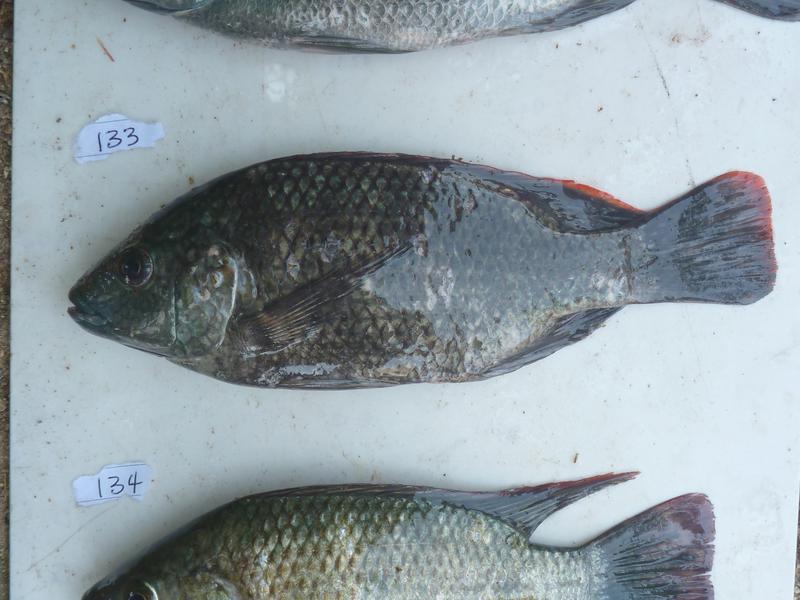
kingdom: Animalia
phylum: Chordata
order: Perciformes
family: Cichlidae
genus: Oreochromis
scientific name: Oreochromis
